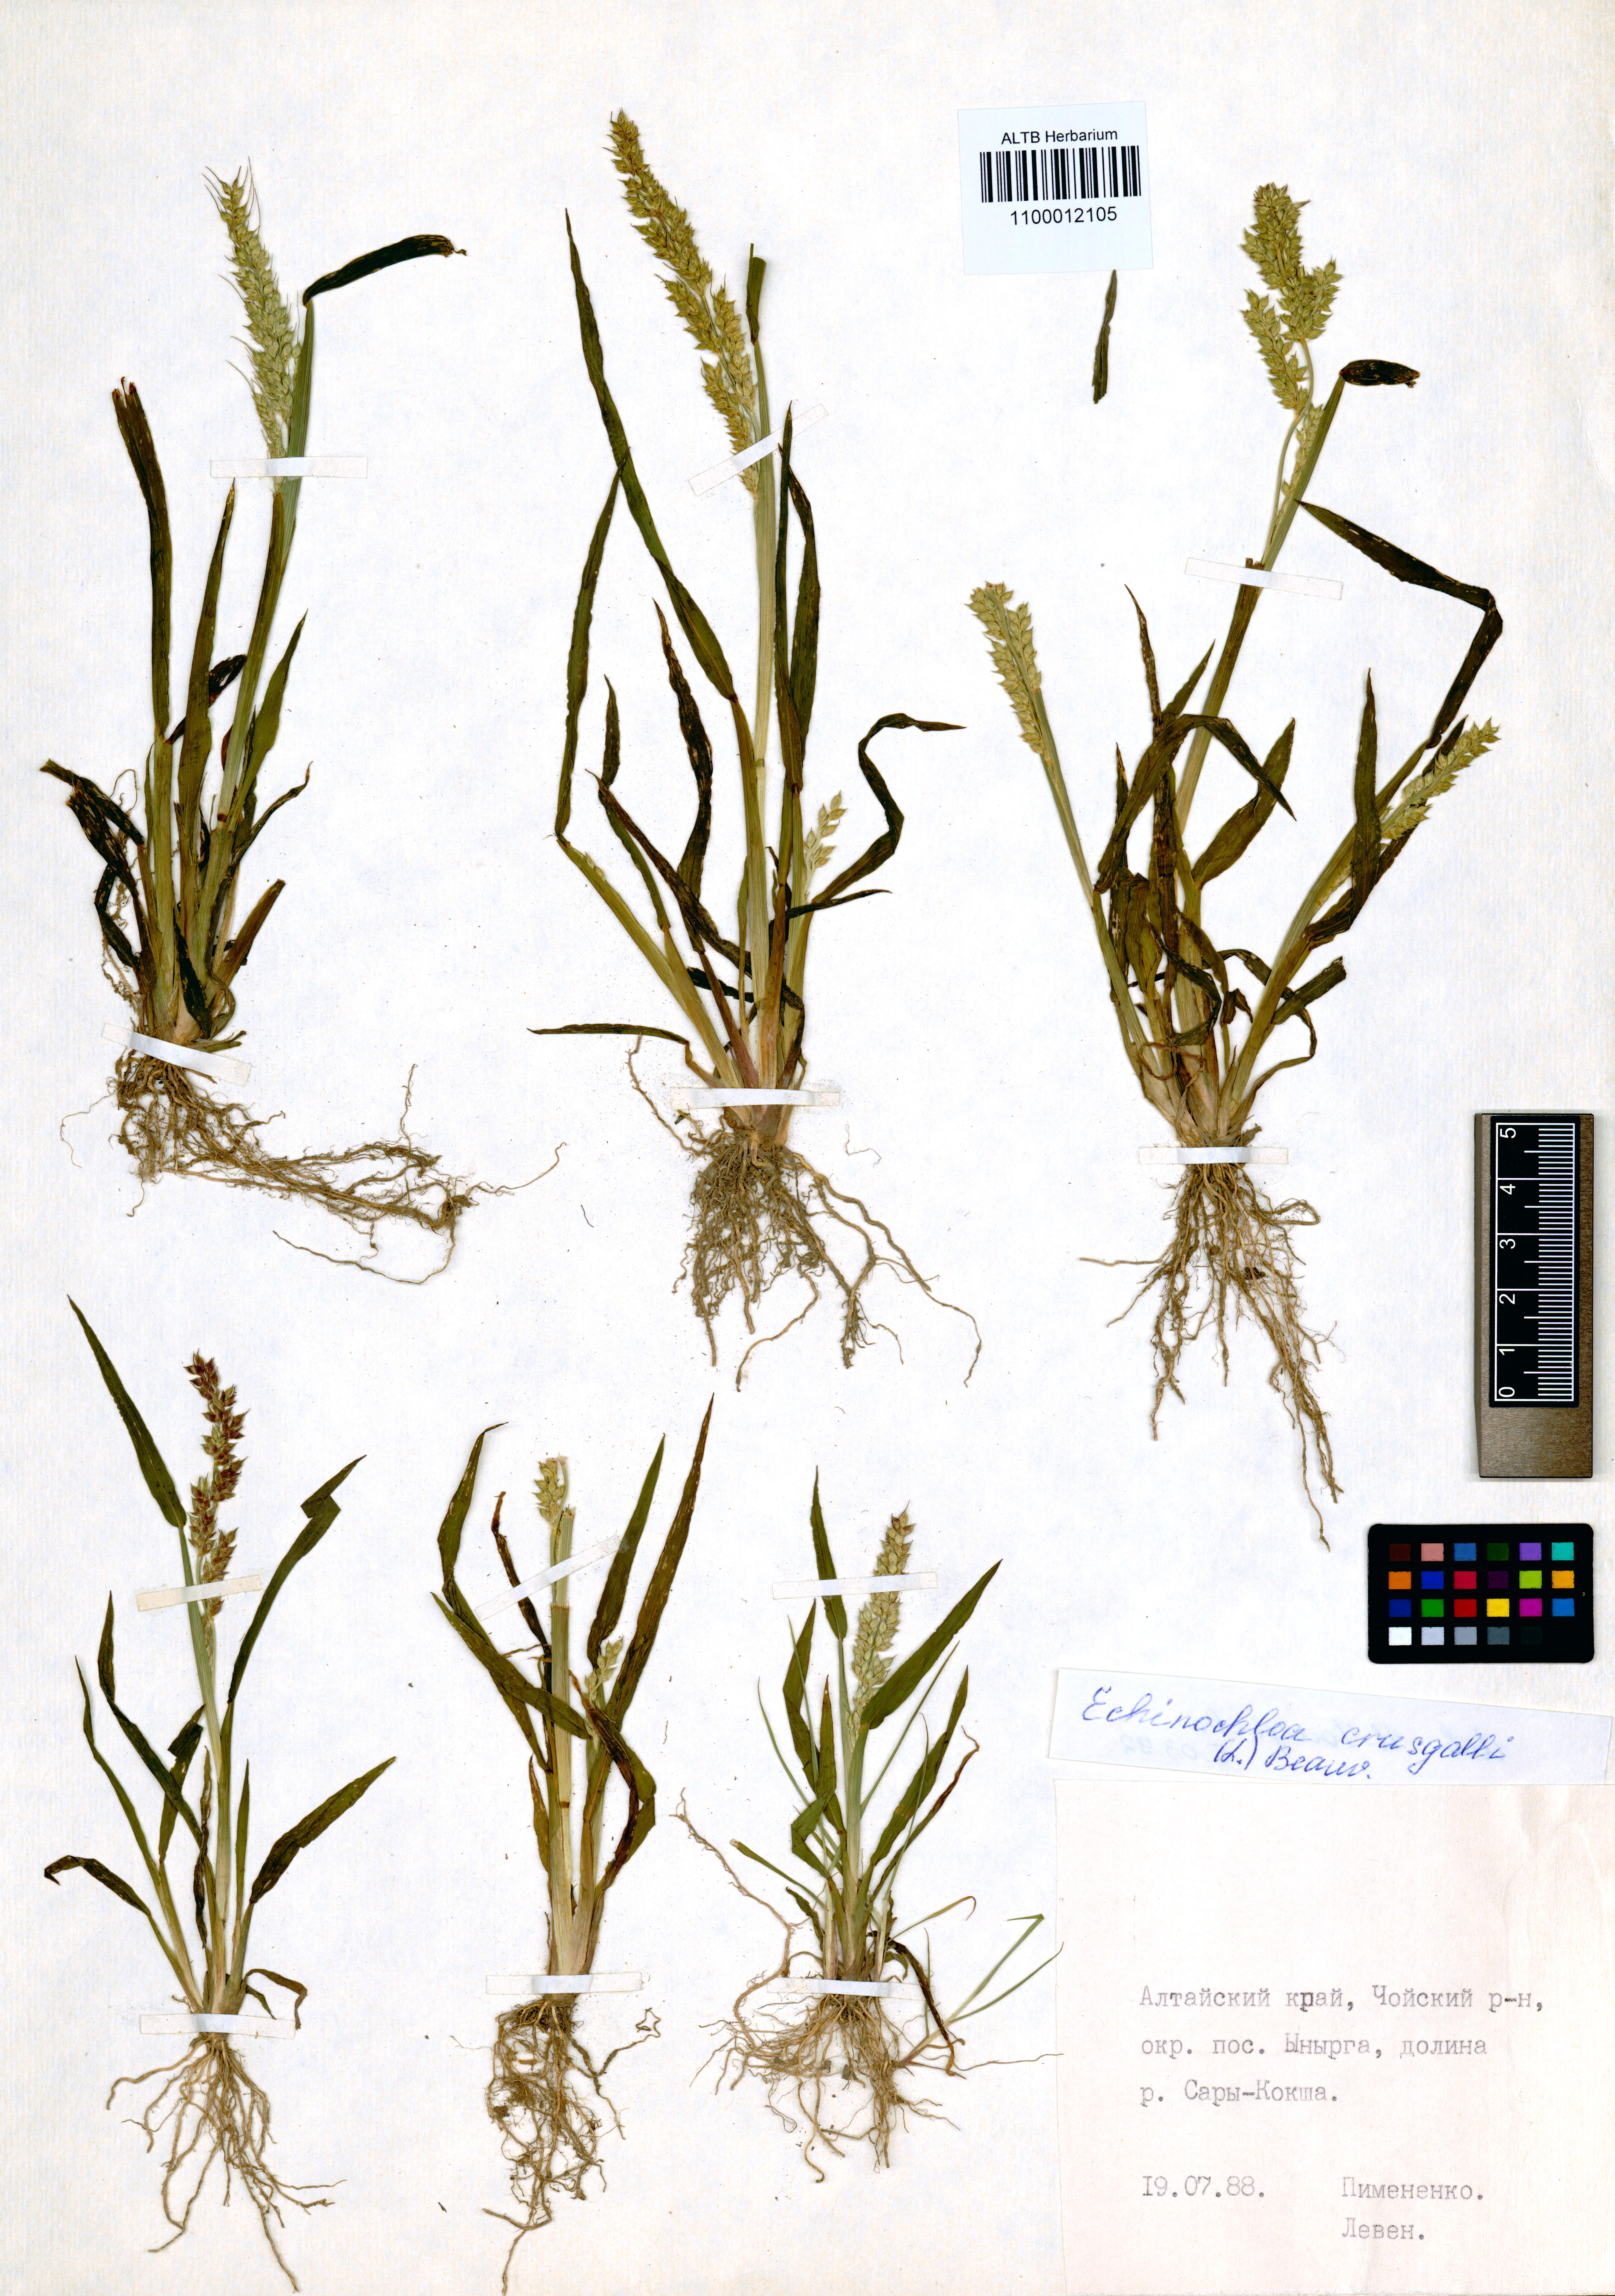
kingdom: Plantae
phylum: Tracheophyta
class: Liliopsida
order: Poales
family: Poaceae
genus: Echinochloa
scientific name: Echinochloa crus-galli
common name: Cockspur
